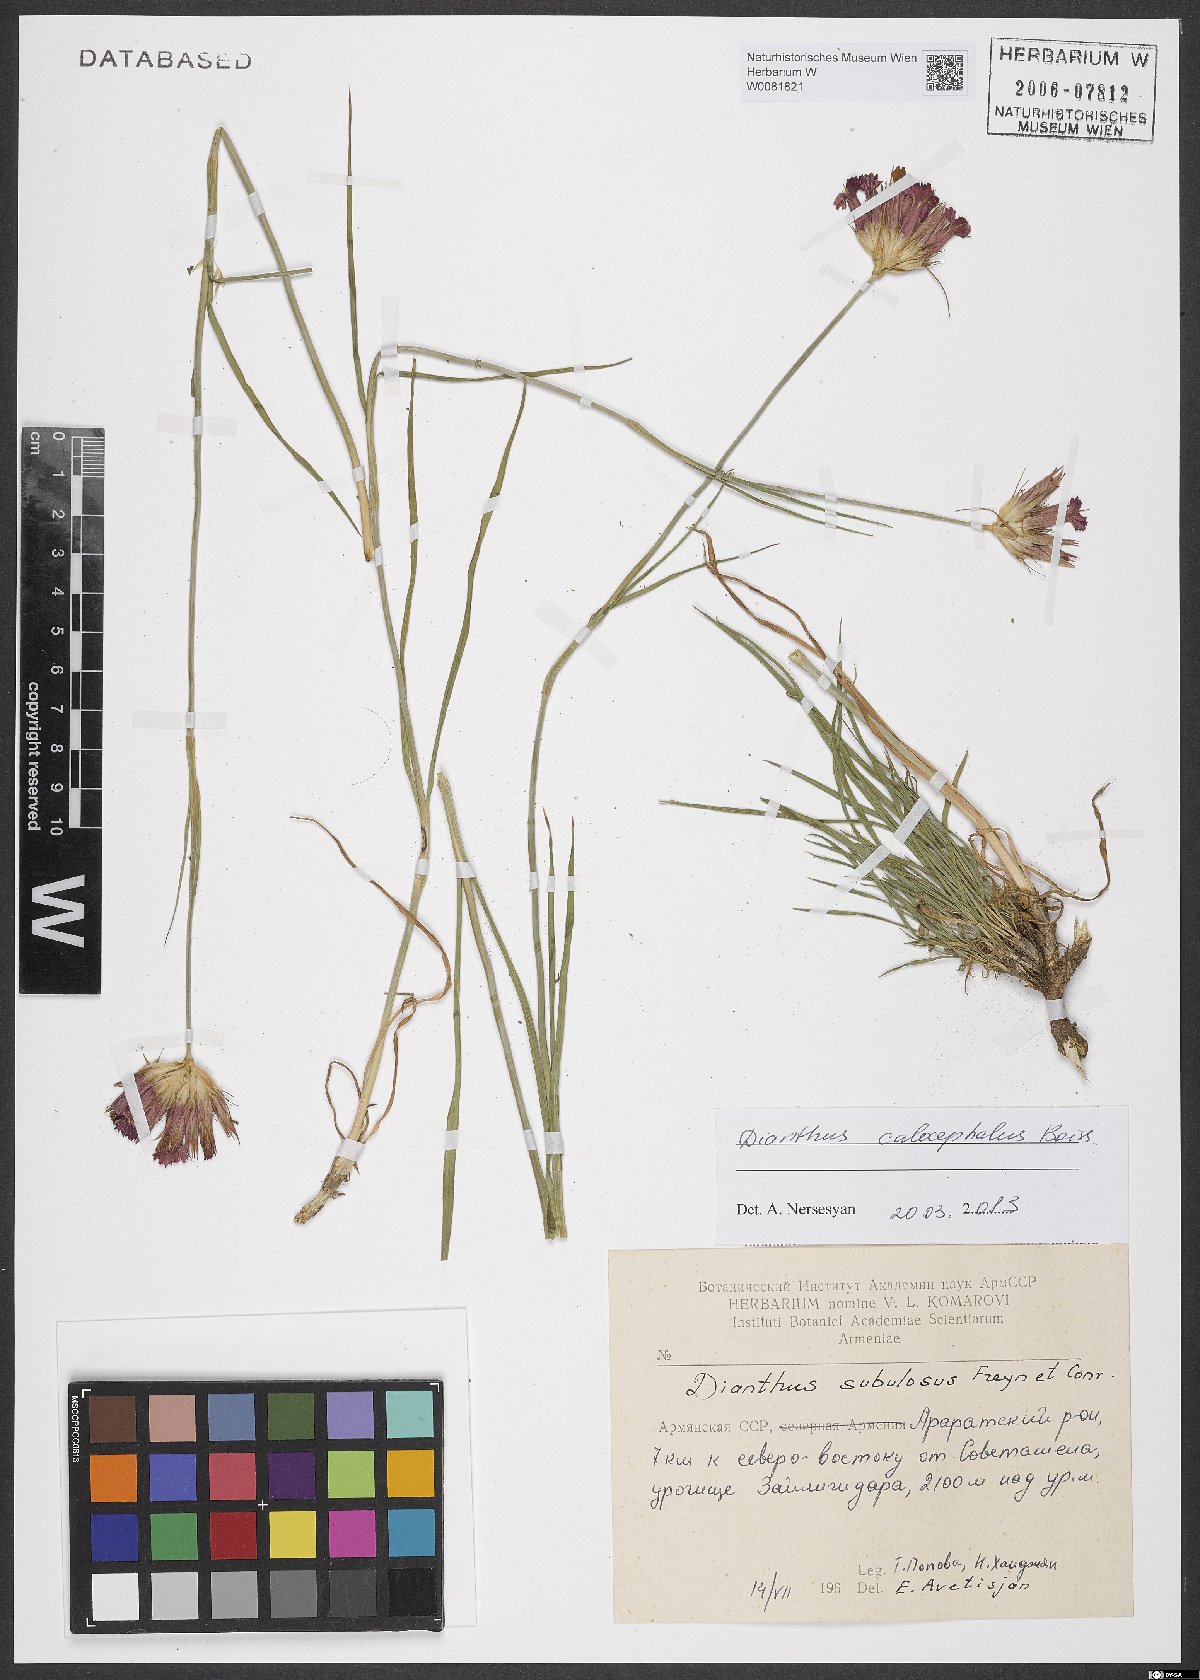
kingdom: Plantae
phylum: Tracheophyta
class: Magnoliopsida
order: Caryophyllales
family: Caryophyllaceae
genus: Dianthus
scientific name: Dianthus cruentus
